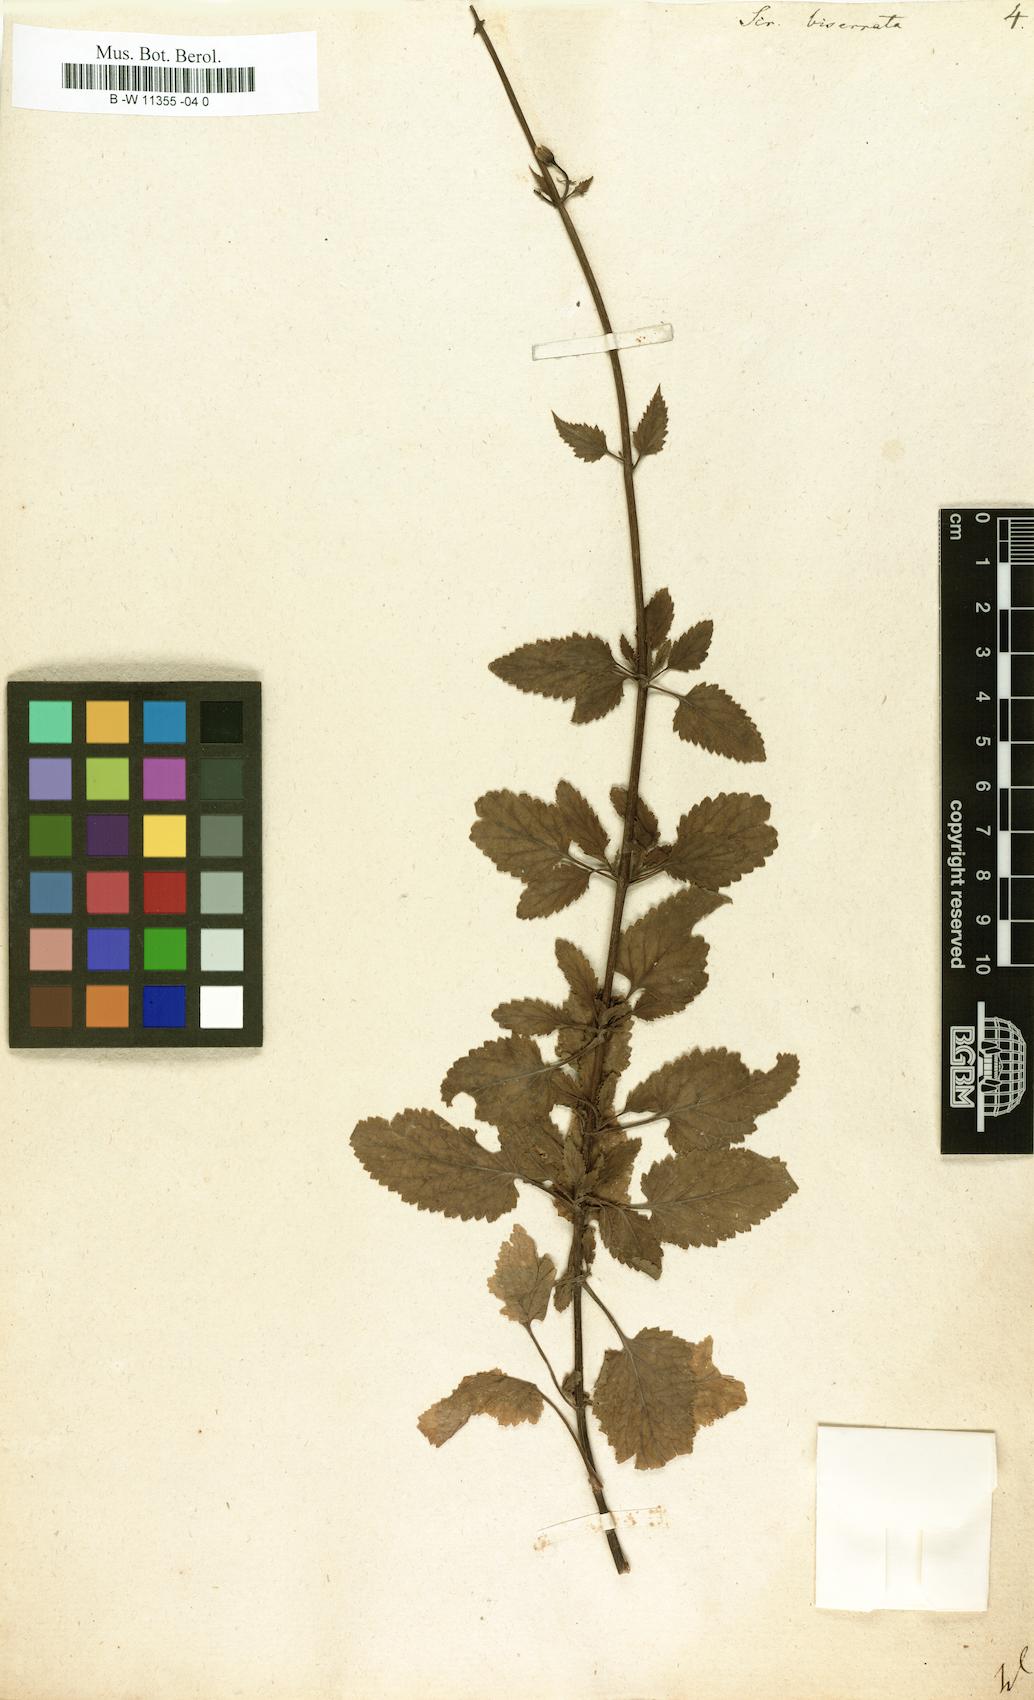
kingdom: Plantae
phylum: Tracheophyta
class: Magnoliopsida
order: Lamiales
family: Scrophulariaceae
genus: Scrophularia
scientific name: Scrophularia scorodonia
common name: Balm-leaved figwort
